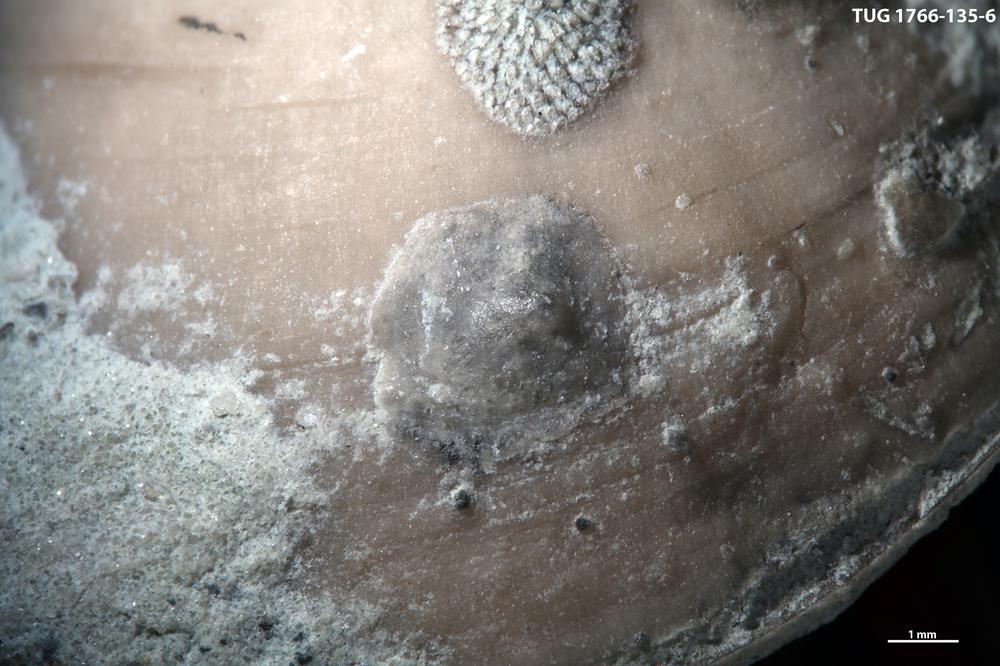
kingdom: Animalia
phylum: Brachiopoda
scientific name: Brachiopoda
